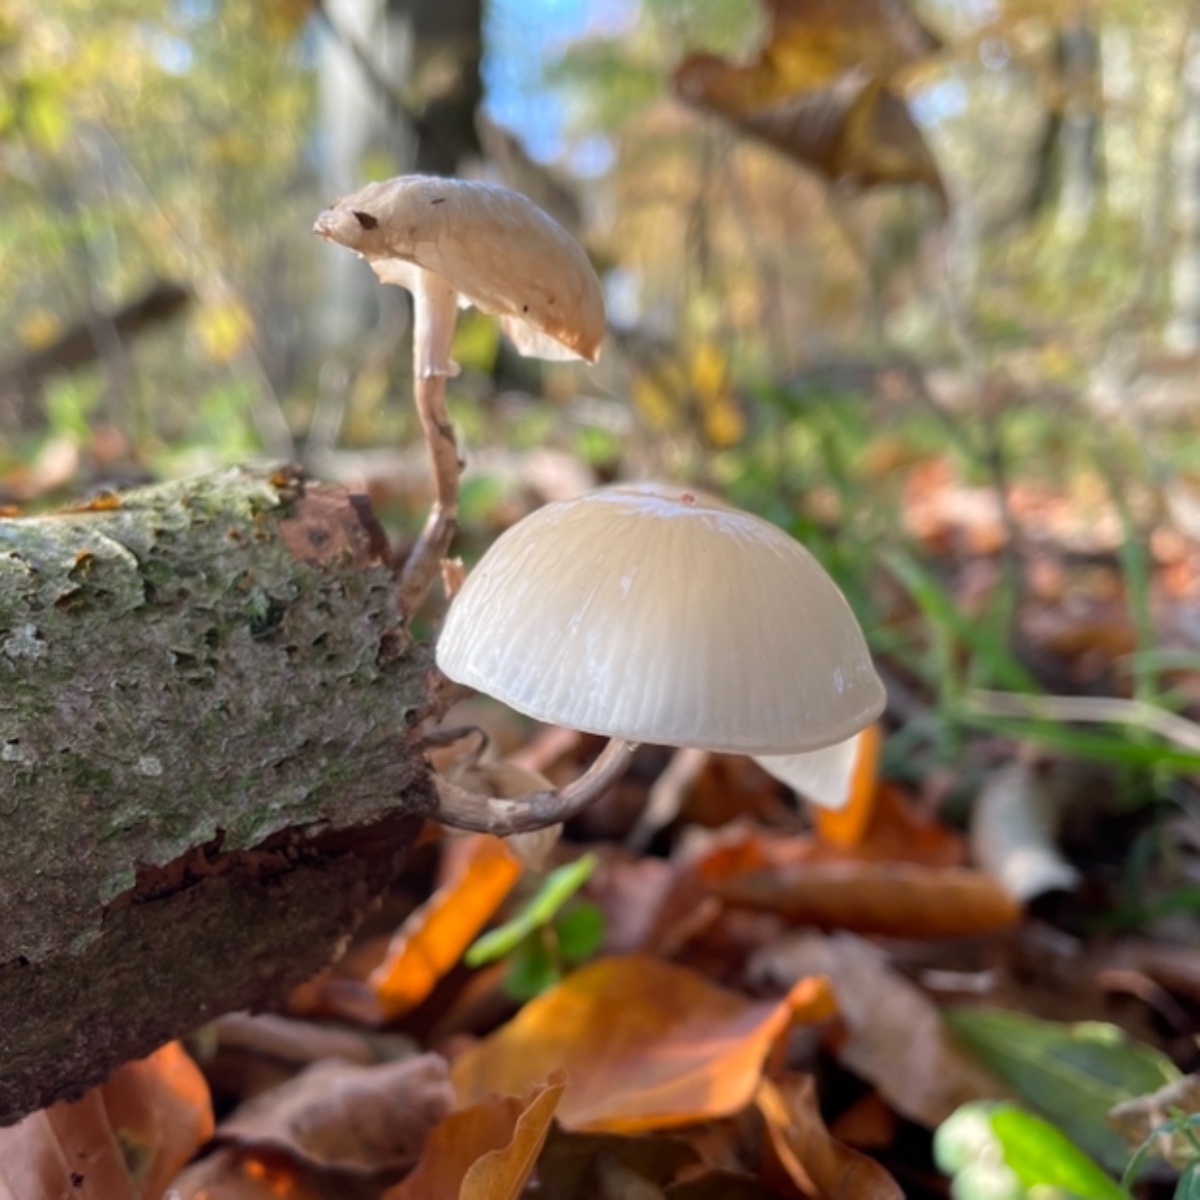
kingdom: Fungi
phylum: Basidiomycota
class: Agaricomycetes
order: Agaricales
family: Physalacriaceae
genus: Mucidula
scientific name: Mucidula mucida
